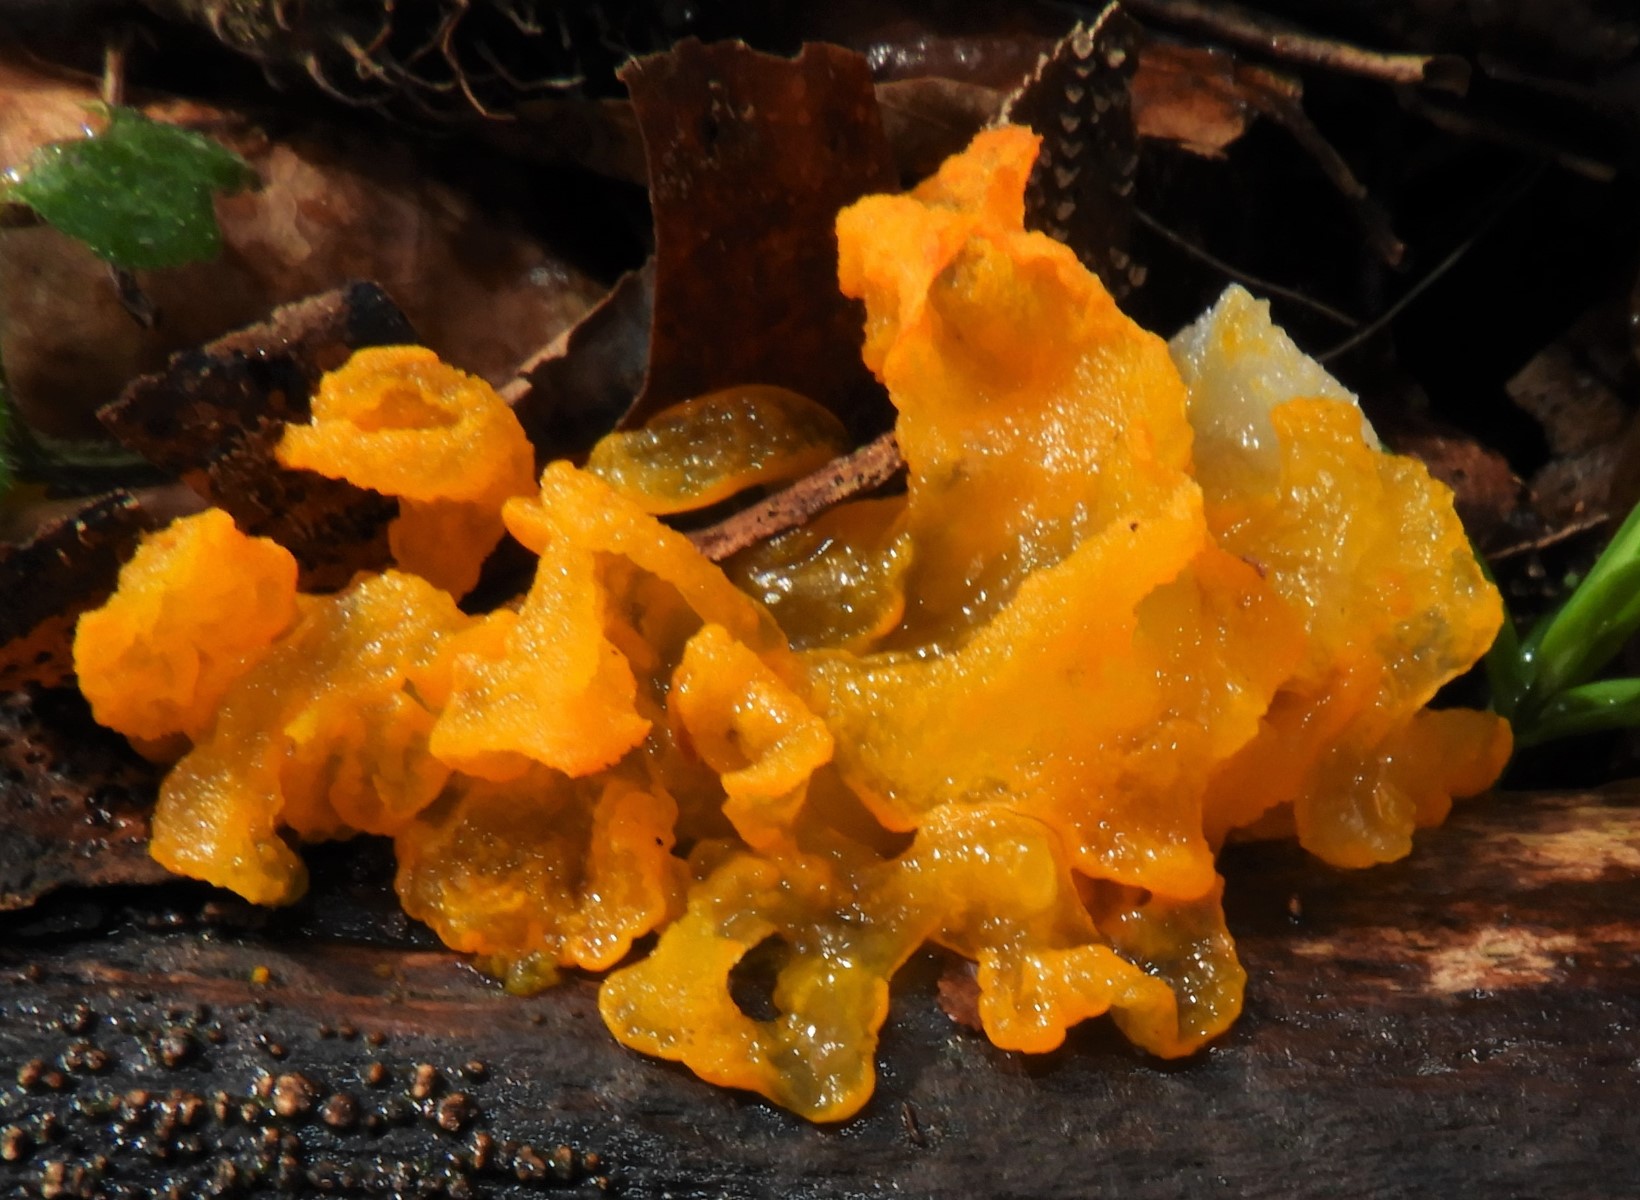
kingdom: Fungi
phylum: Basidiomycota
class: Tremellomycetes
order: Tremellales
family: Tremellaceae
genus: Tremella
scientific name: Tremella mesenterica
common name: gul bævresvamp
